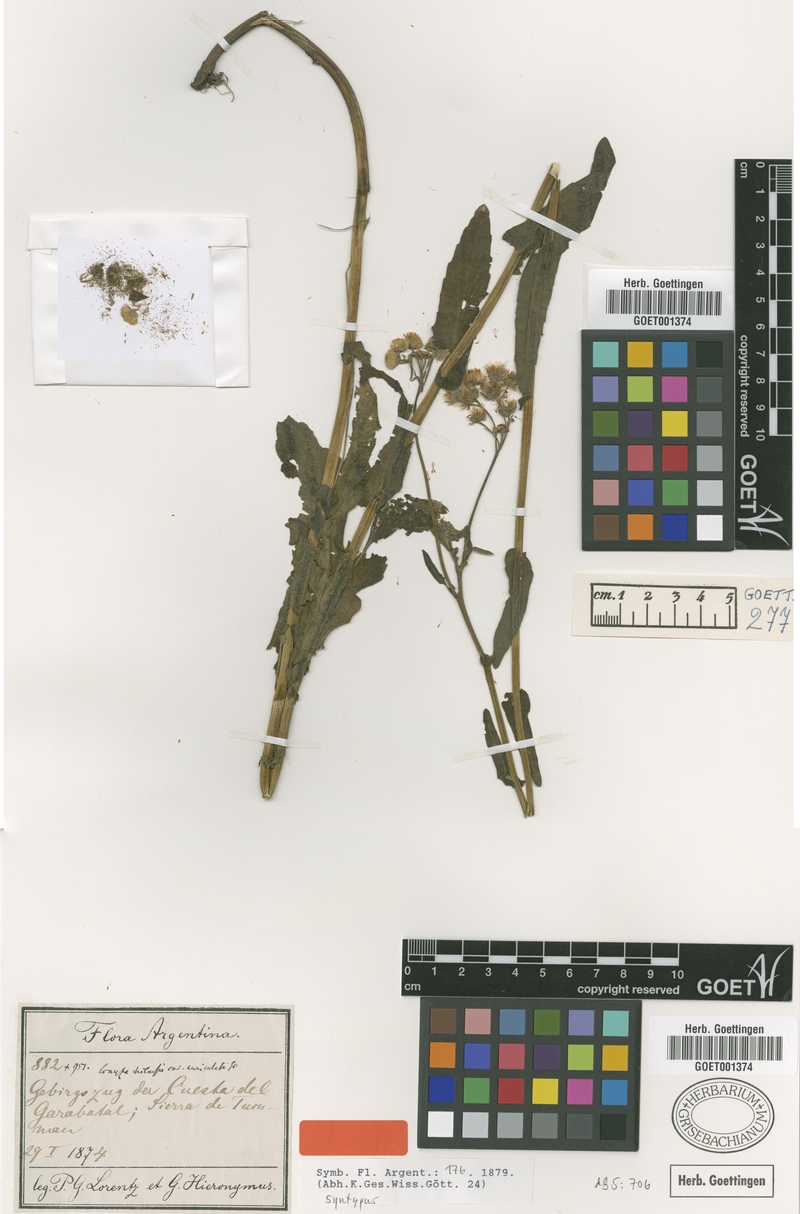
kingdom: Plantae
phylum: Tracheophyta
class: Magnoliopsida
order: Asterales
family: Asteraceae
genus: Erigeron
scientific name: Erigeron primulifolius
